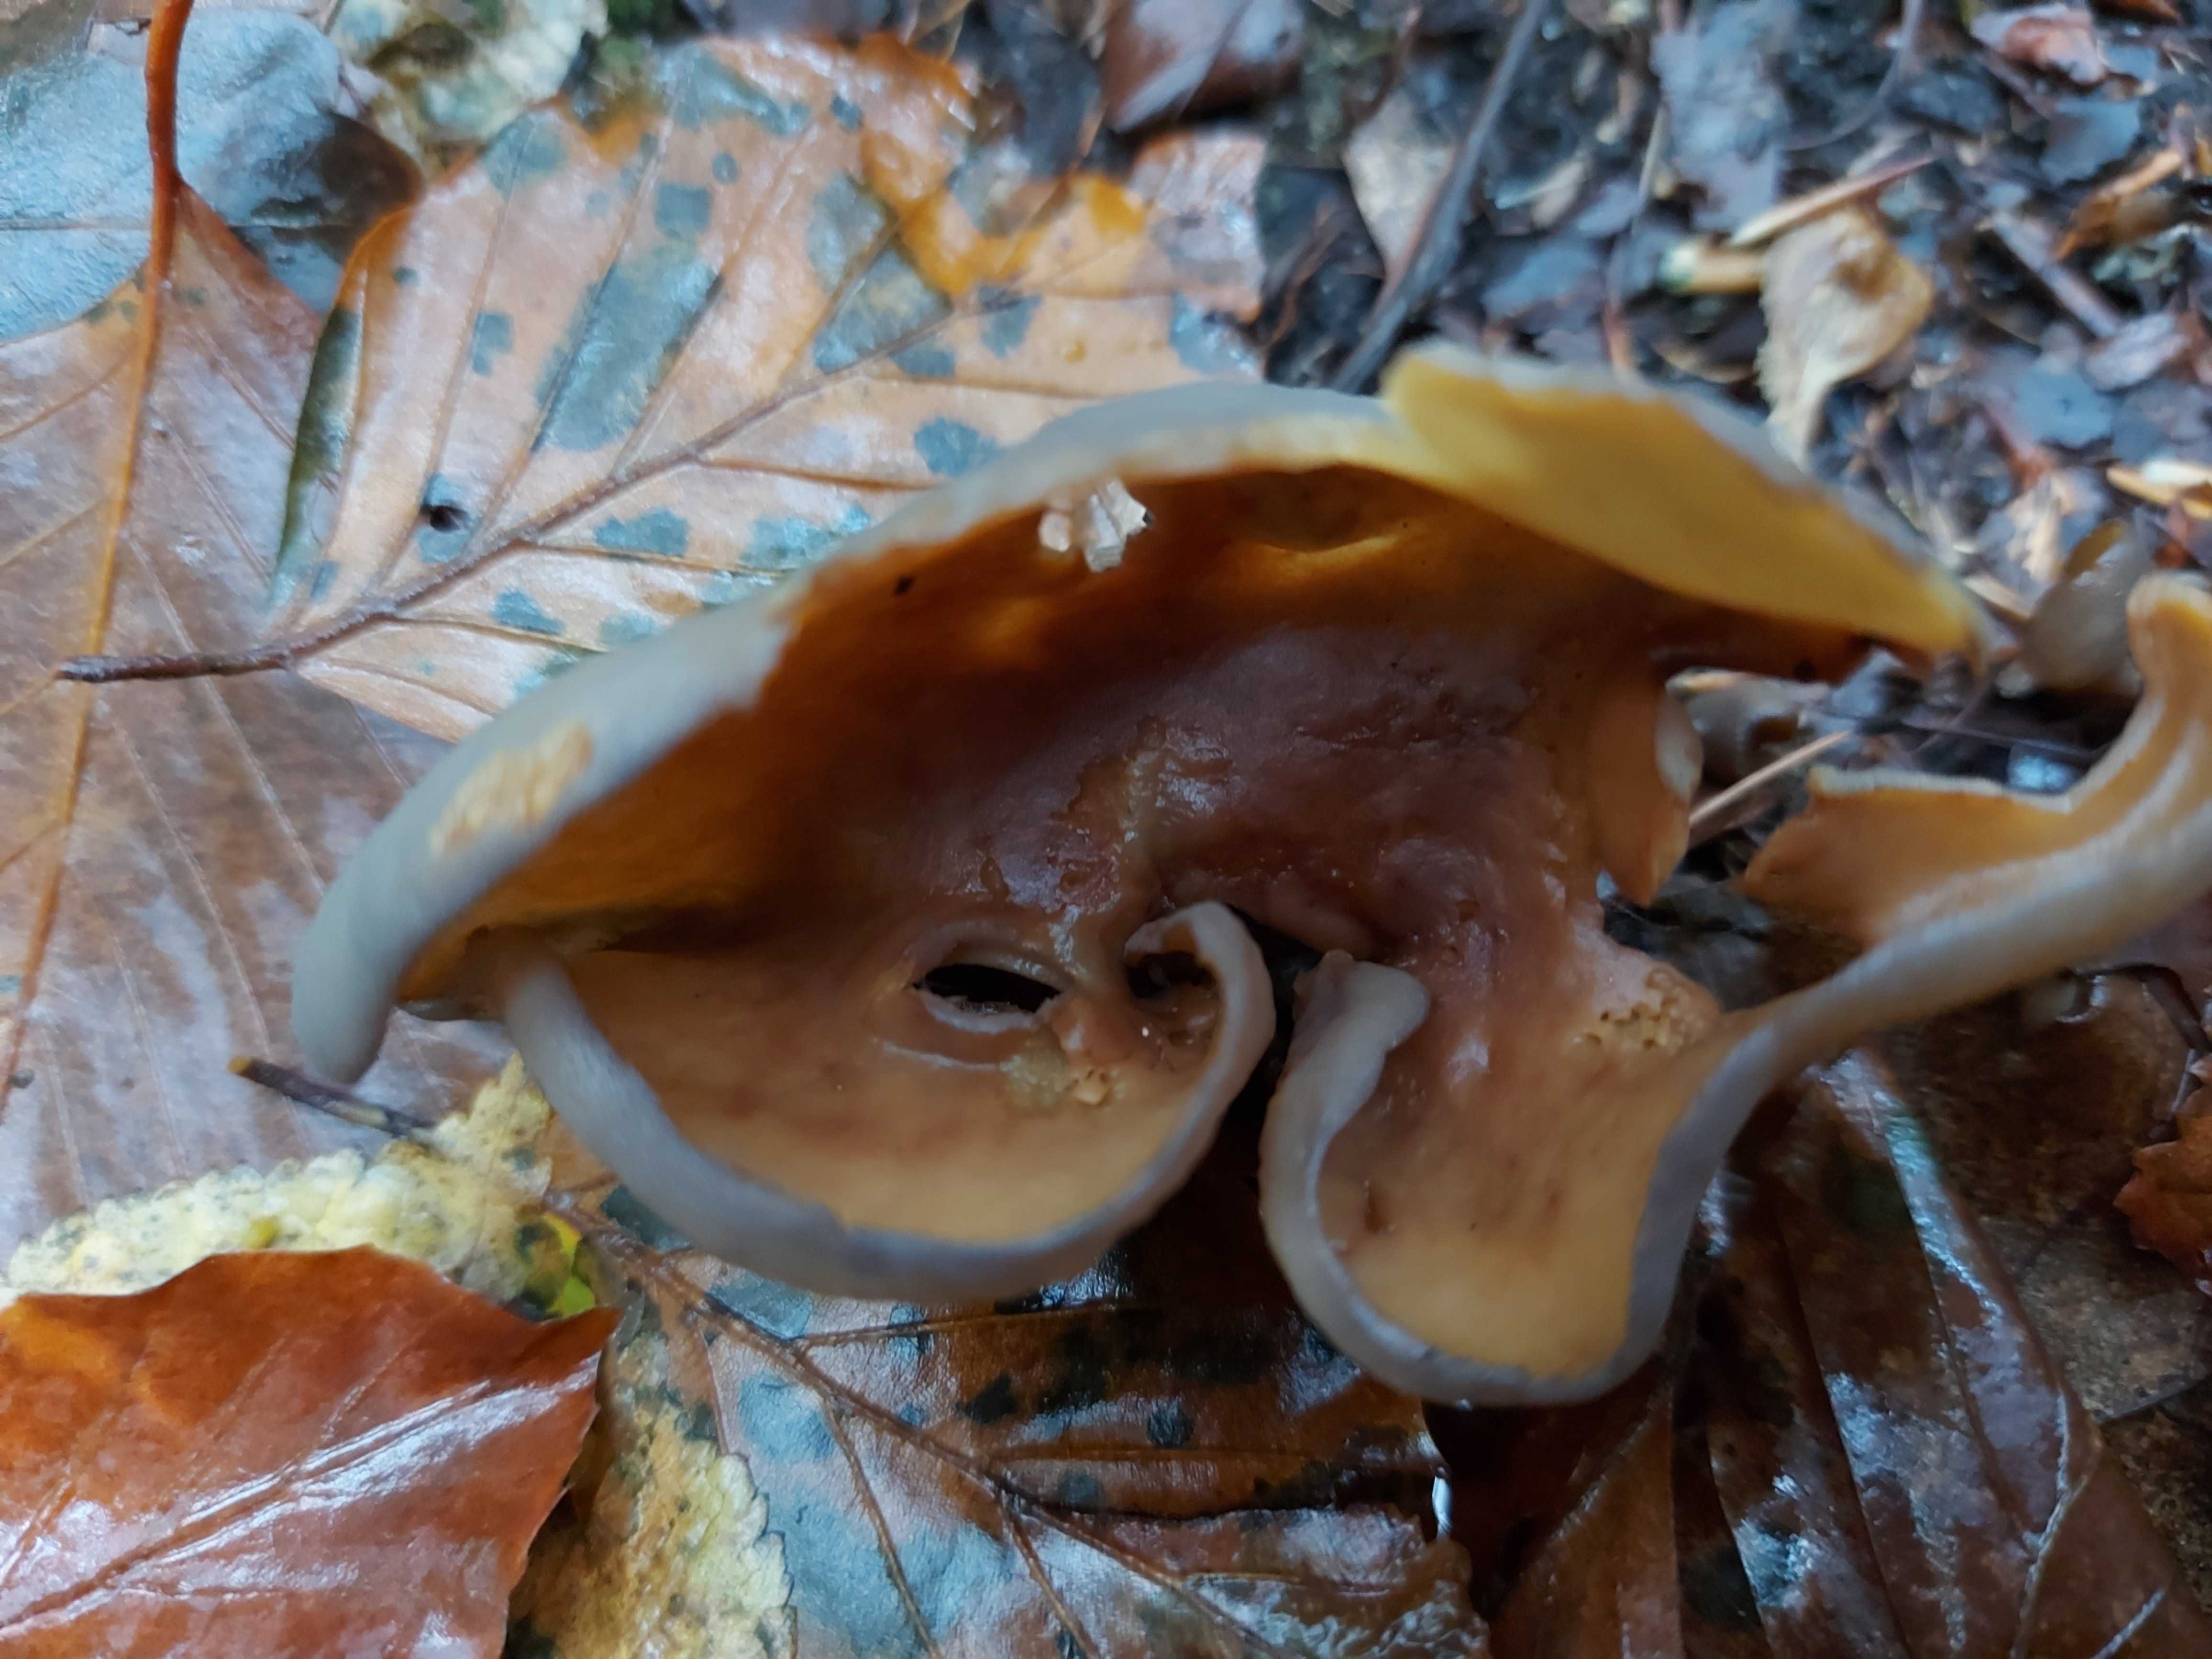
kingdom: Fungi
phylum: Ascomycota
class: Pezizomycetes
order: Pezizales
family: Pezizaceae
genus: Peziza
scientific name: Peziza
